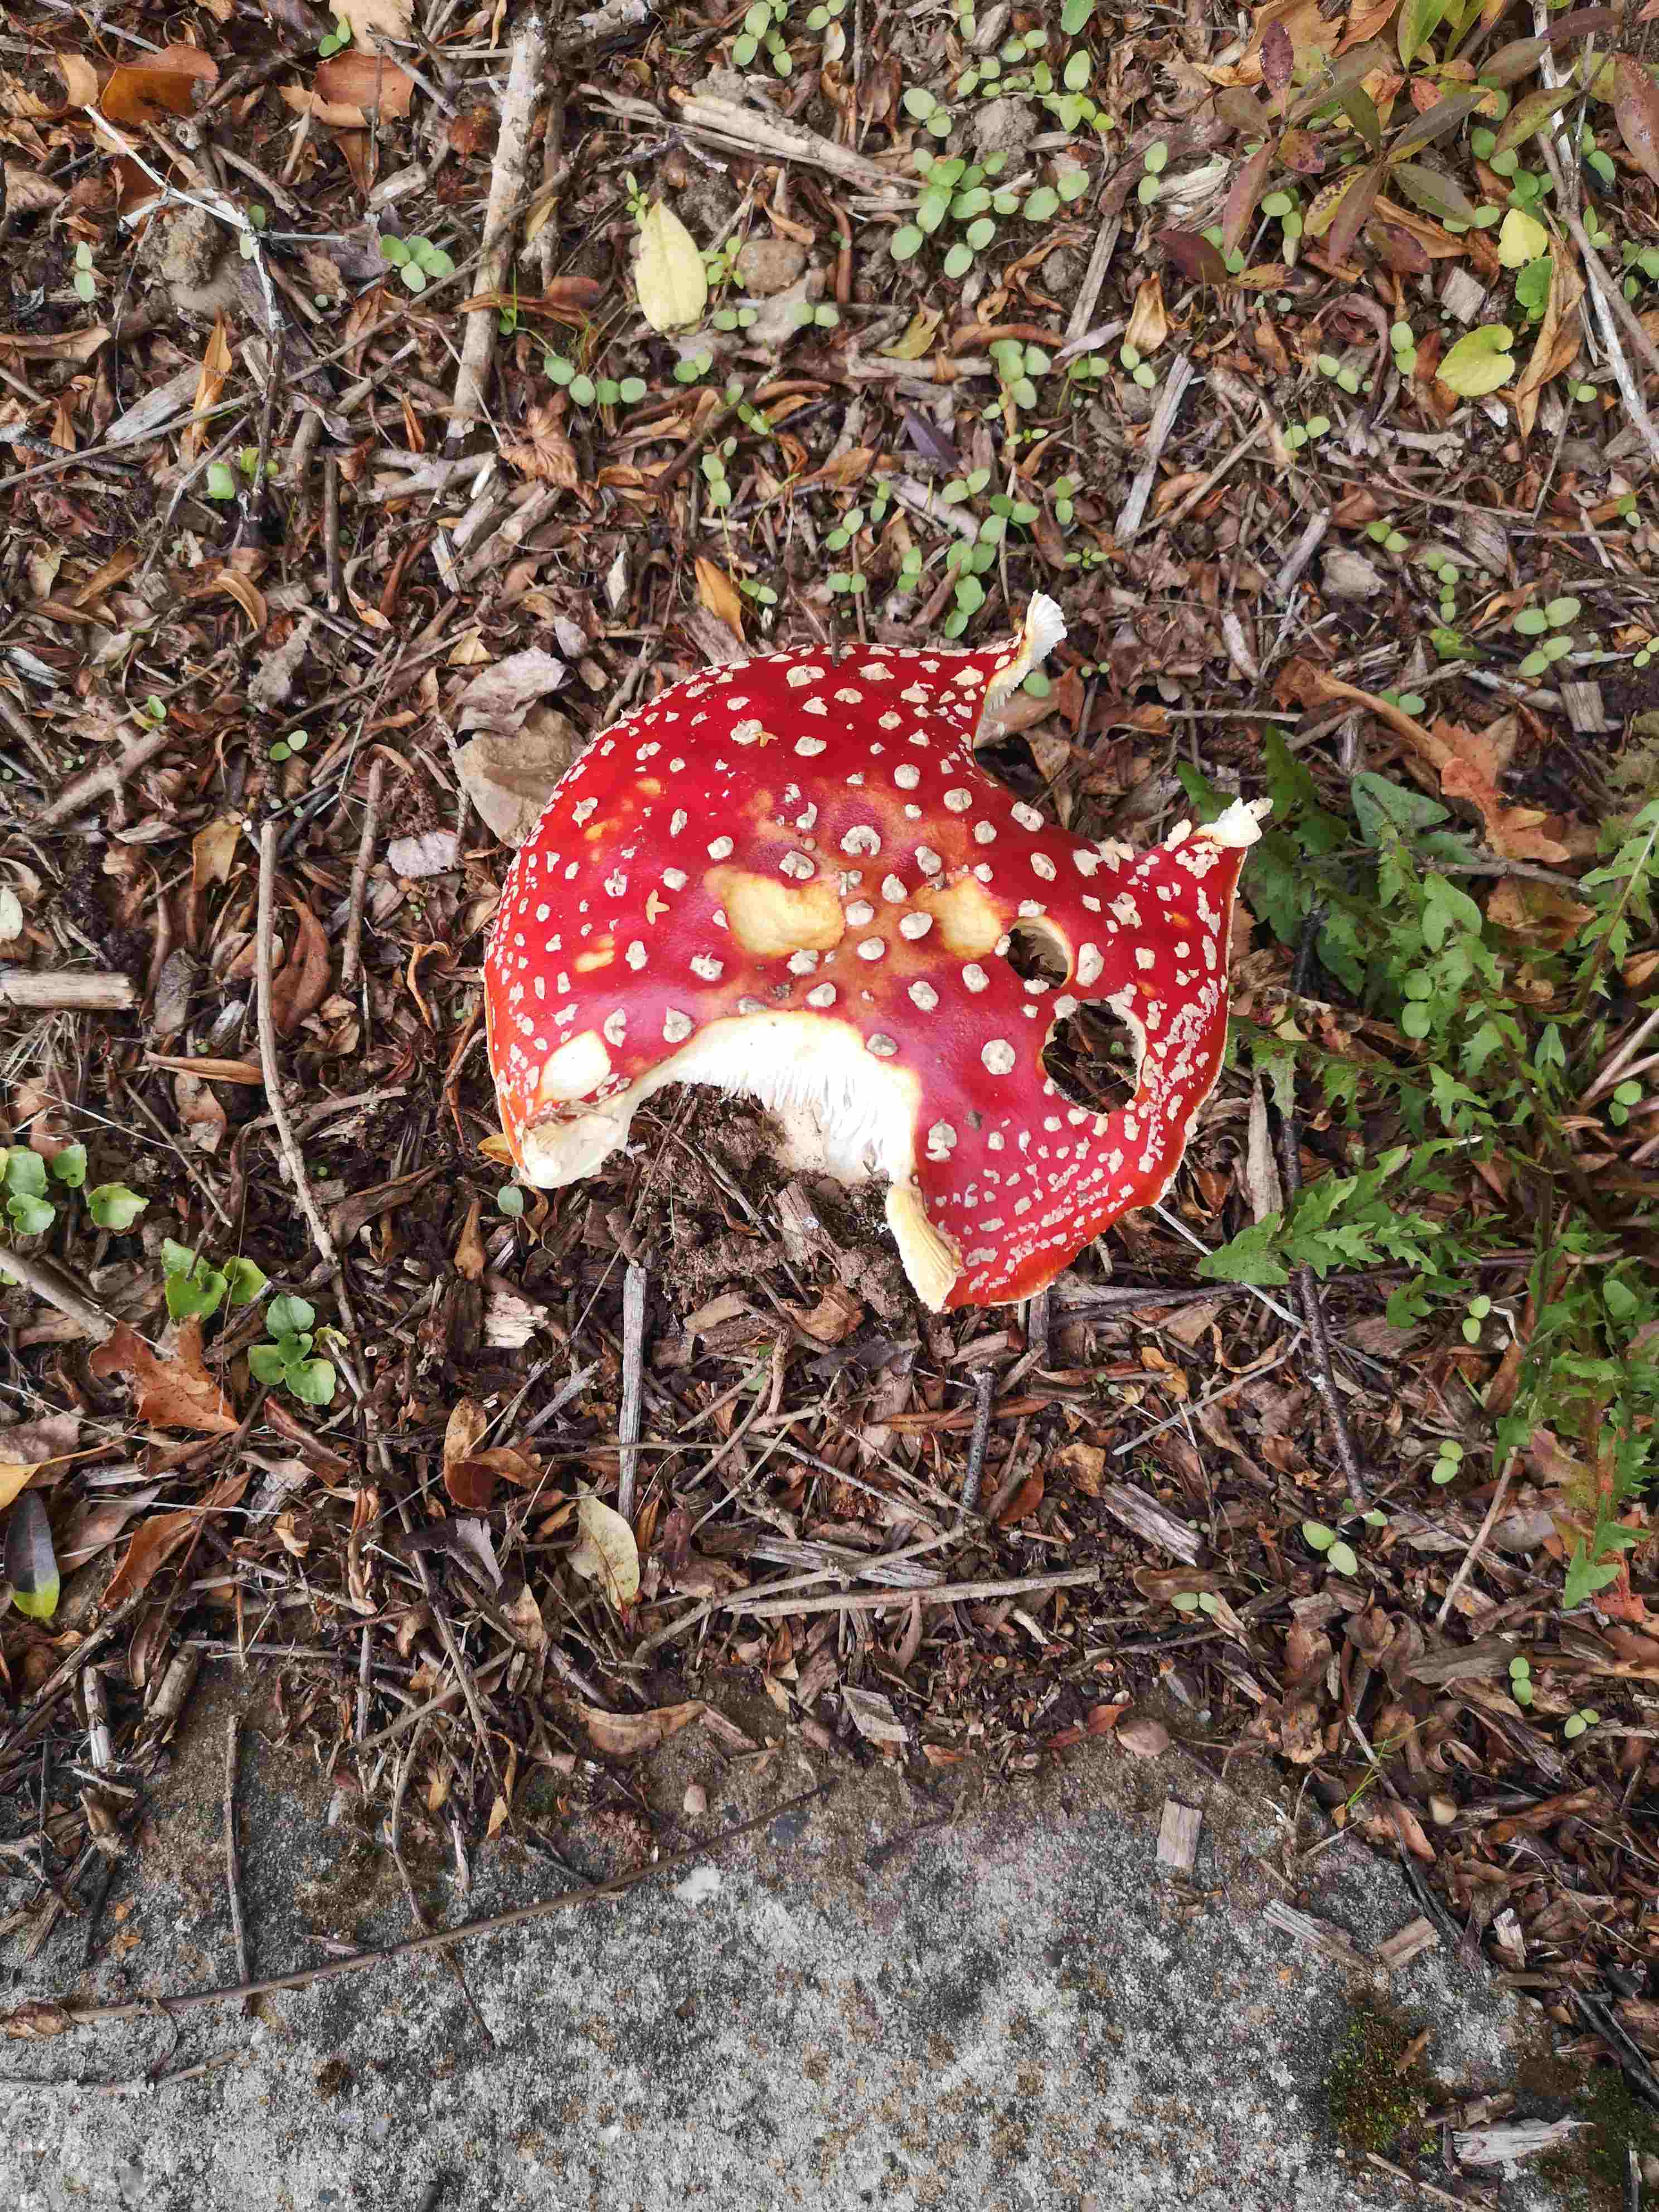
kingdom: Fungi
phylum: Basidiomycota
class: Agaricomycetes
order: Agaricales
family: Amanitaceae
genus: Amanita
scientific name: Amanita muscaria
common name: rød fluesvamp
